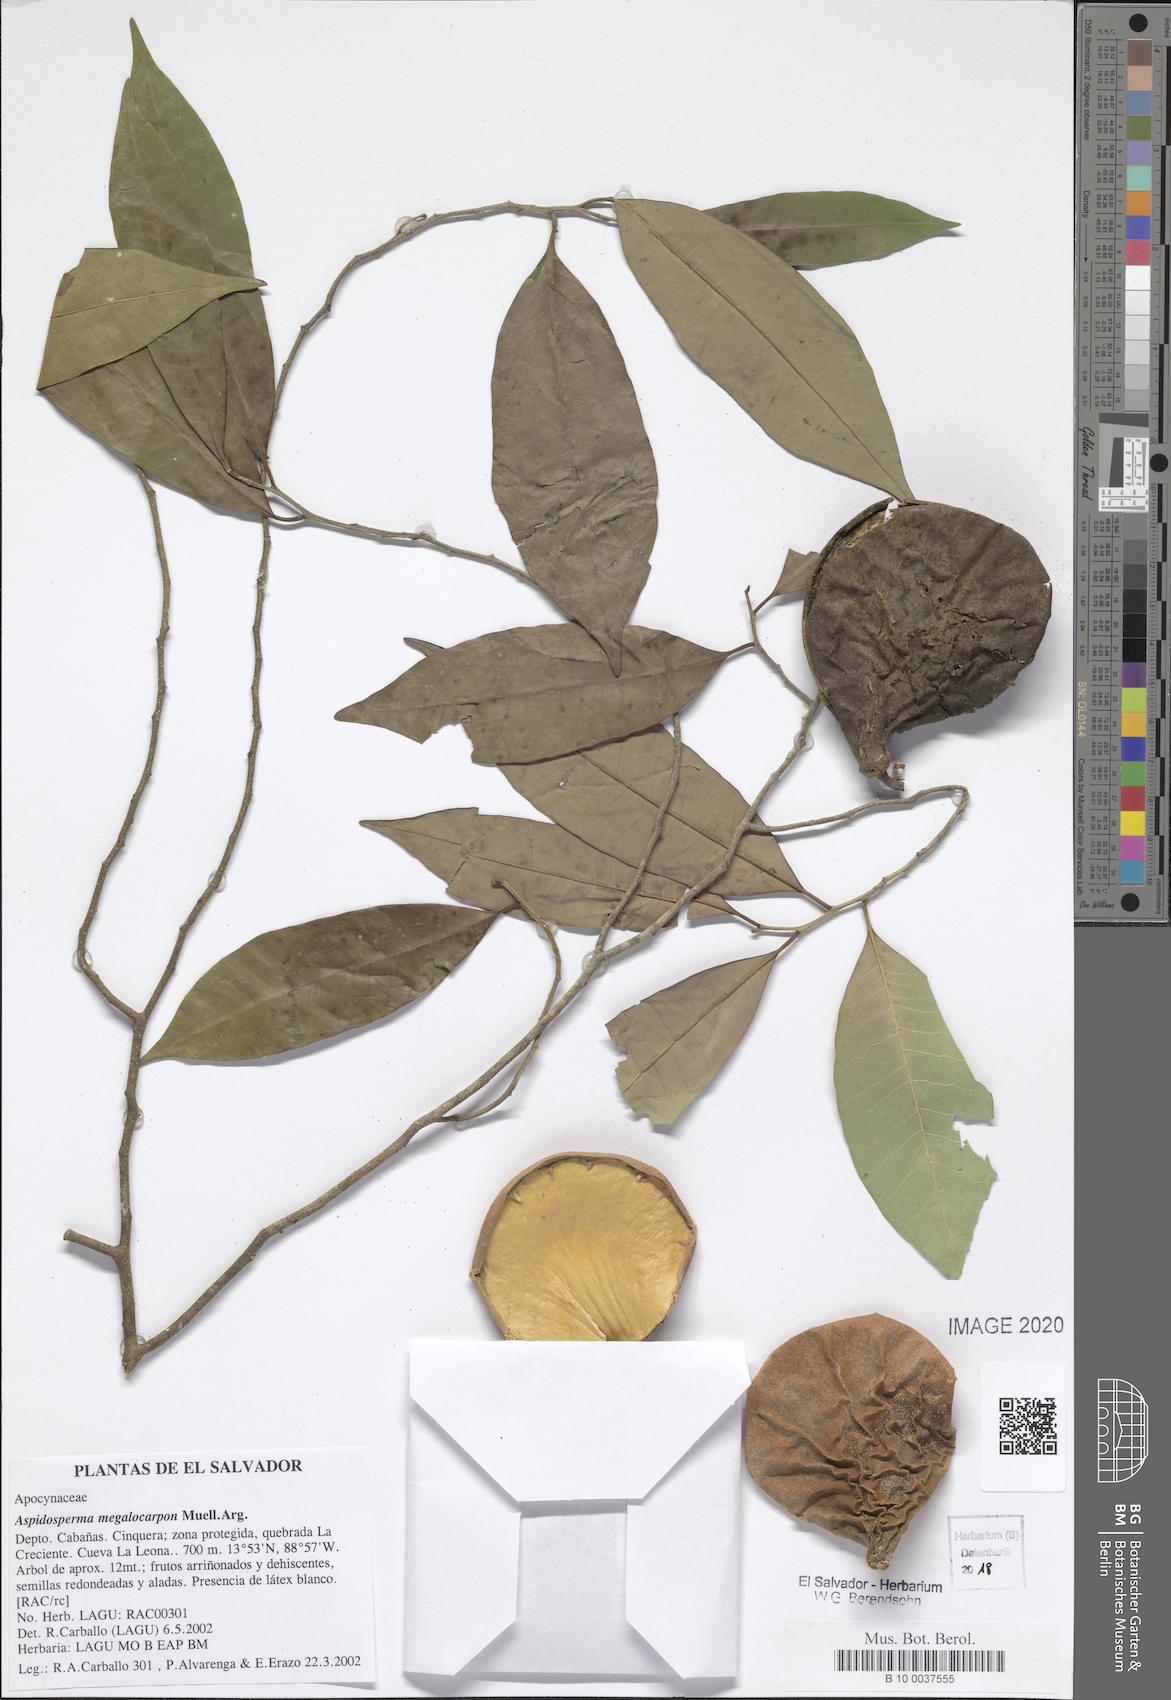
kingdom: Plantae
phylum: Tracheophyta
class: Magnoliopsida
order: Gentianales
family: Apocynaceae
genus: Aspidosperma
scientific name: Aspidosperma megalocarpon
